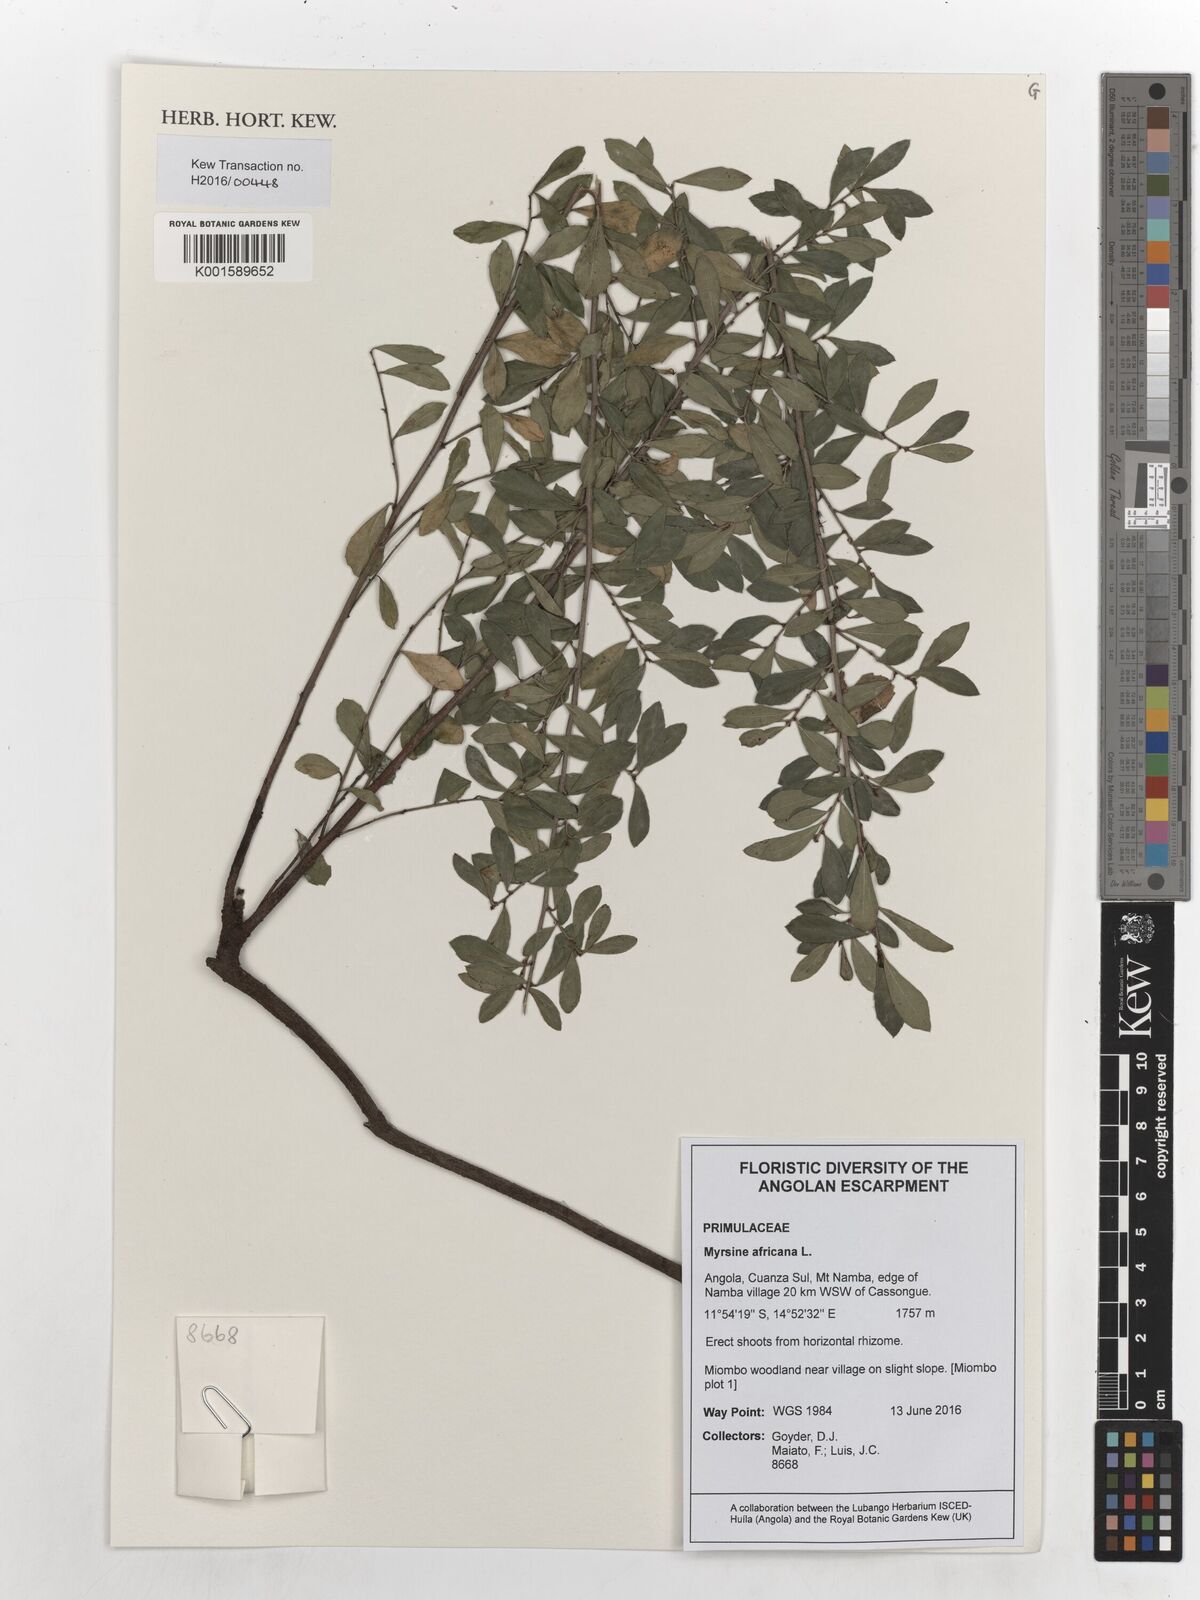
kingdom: Plantae
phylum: Tracheophyta
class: Magnoliopsida
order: Ericales
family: Primulaceae
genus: Myrsine
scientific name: Myrsine africana
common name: African-boxwood
